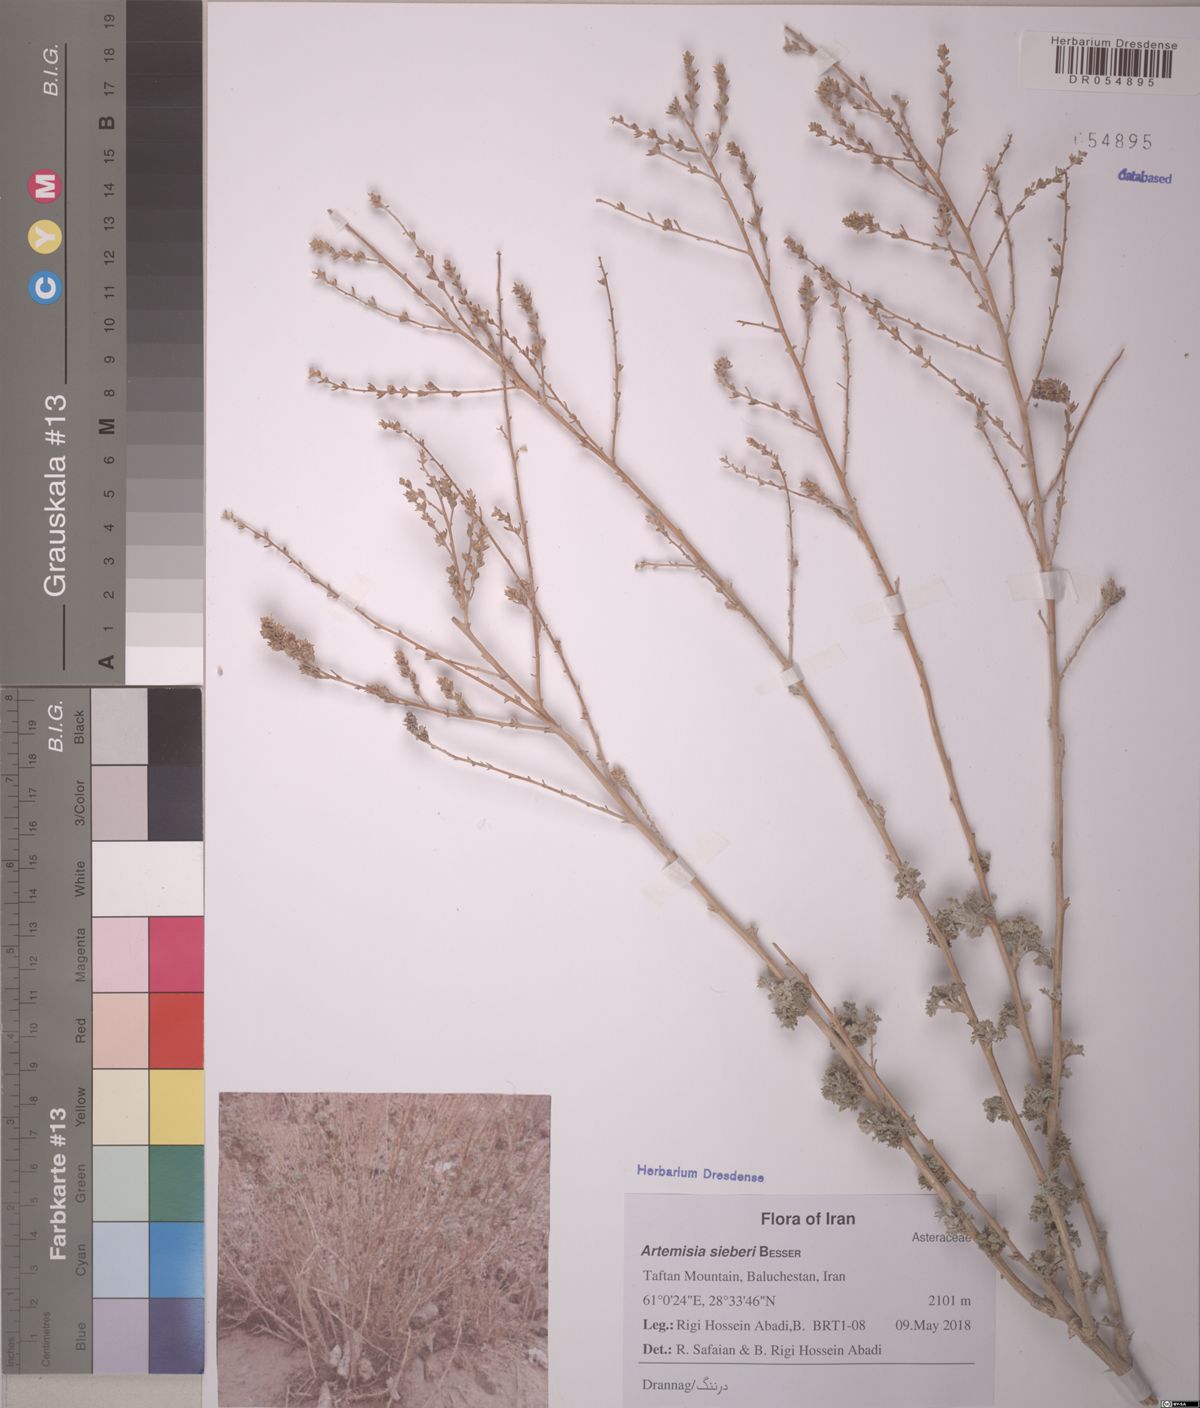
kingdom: Plantae
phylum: Tracheophyta
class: Magnoliopsida
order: Asterales
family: Asteraceae
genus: Artemisia
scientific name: Artemisia sieberi
